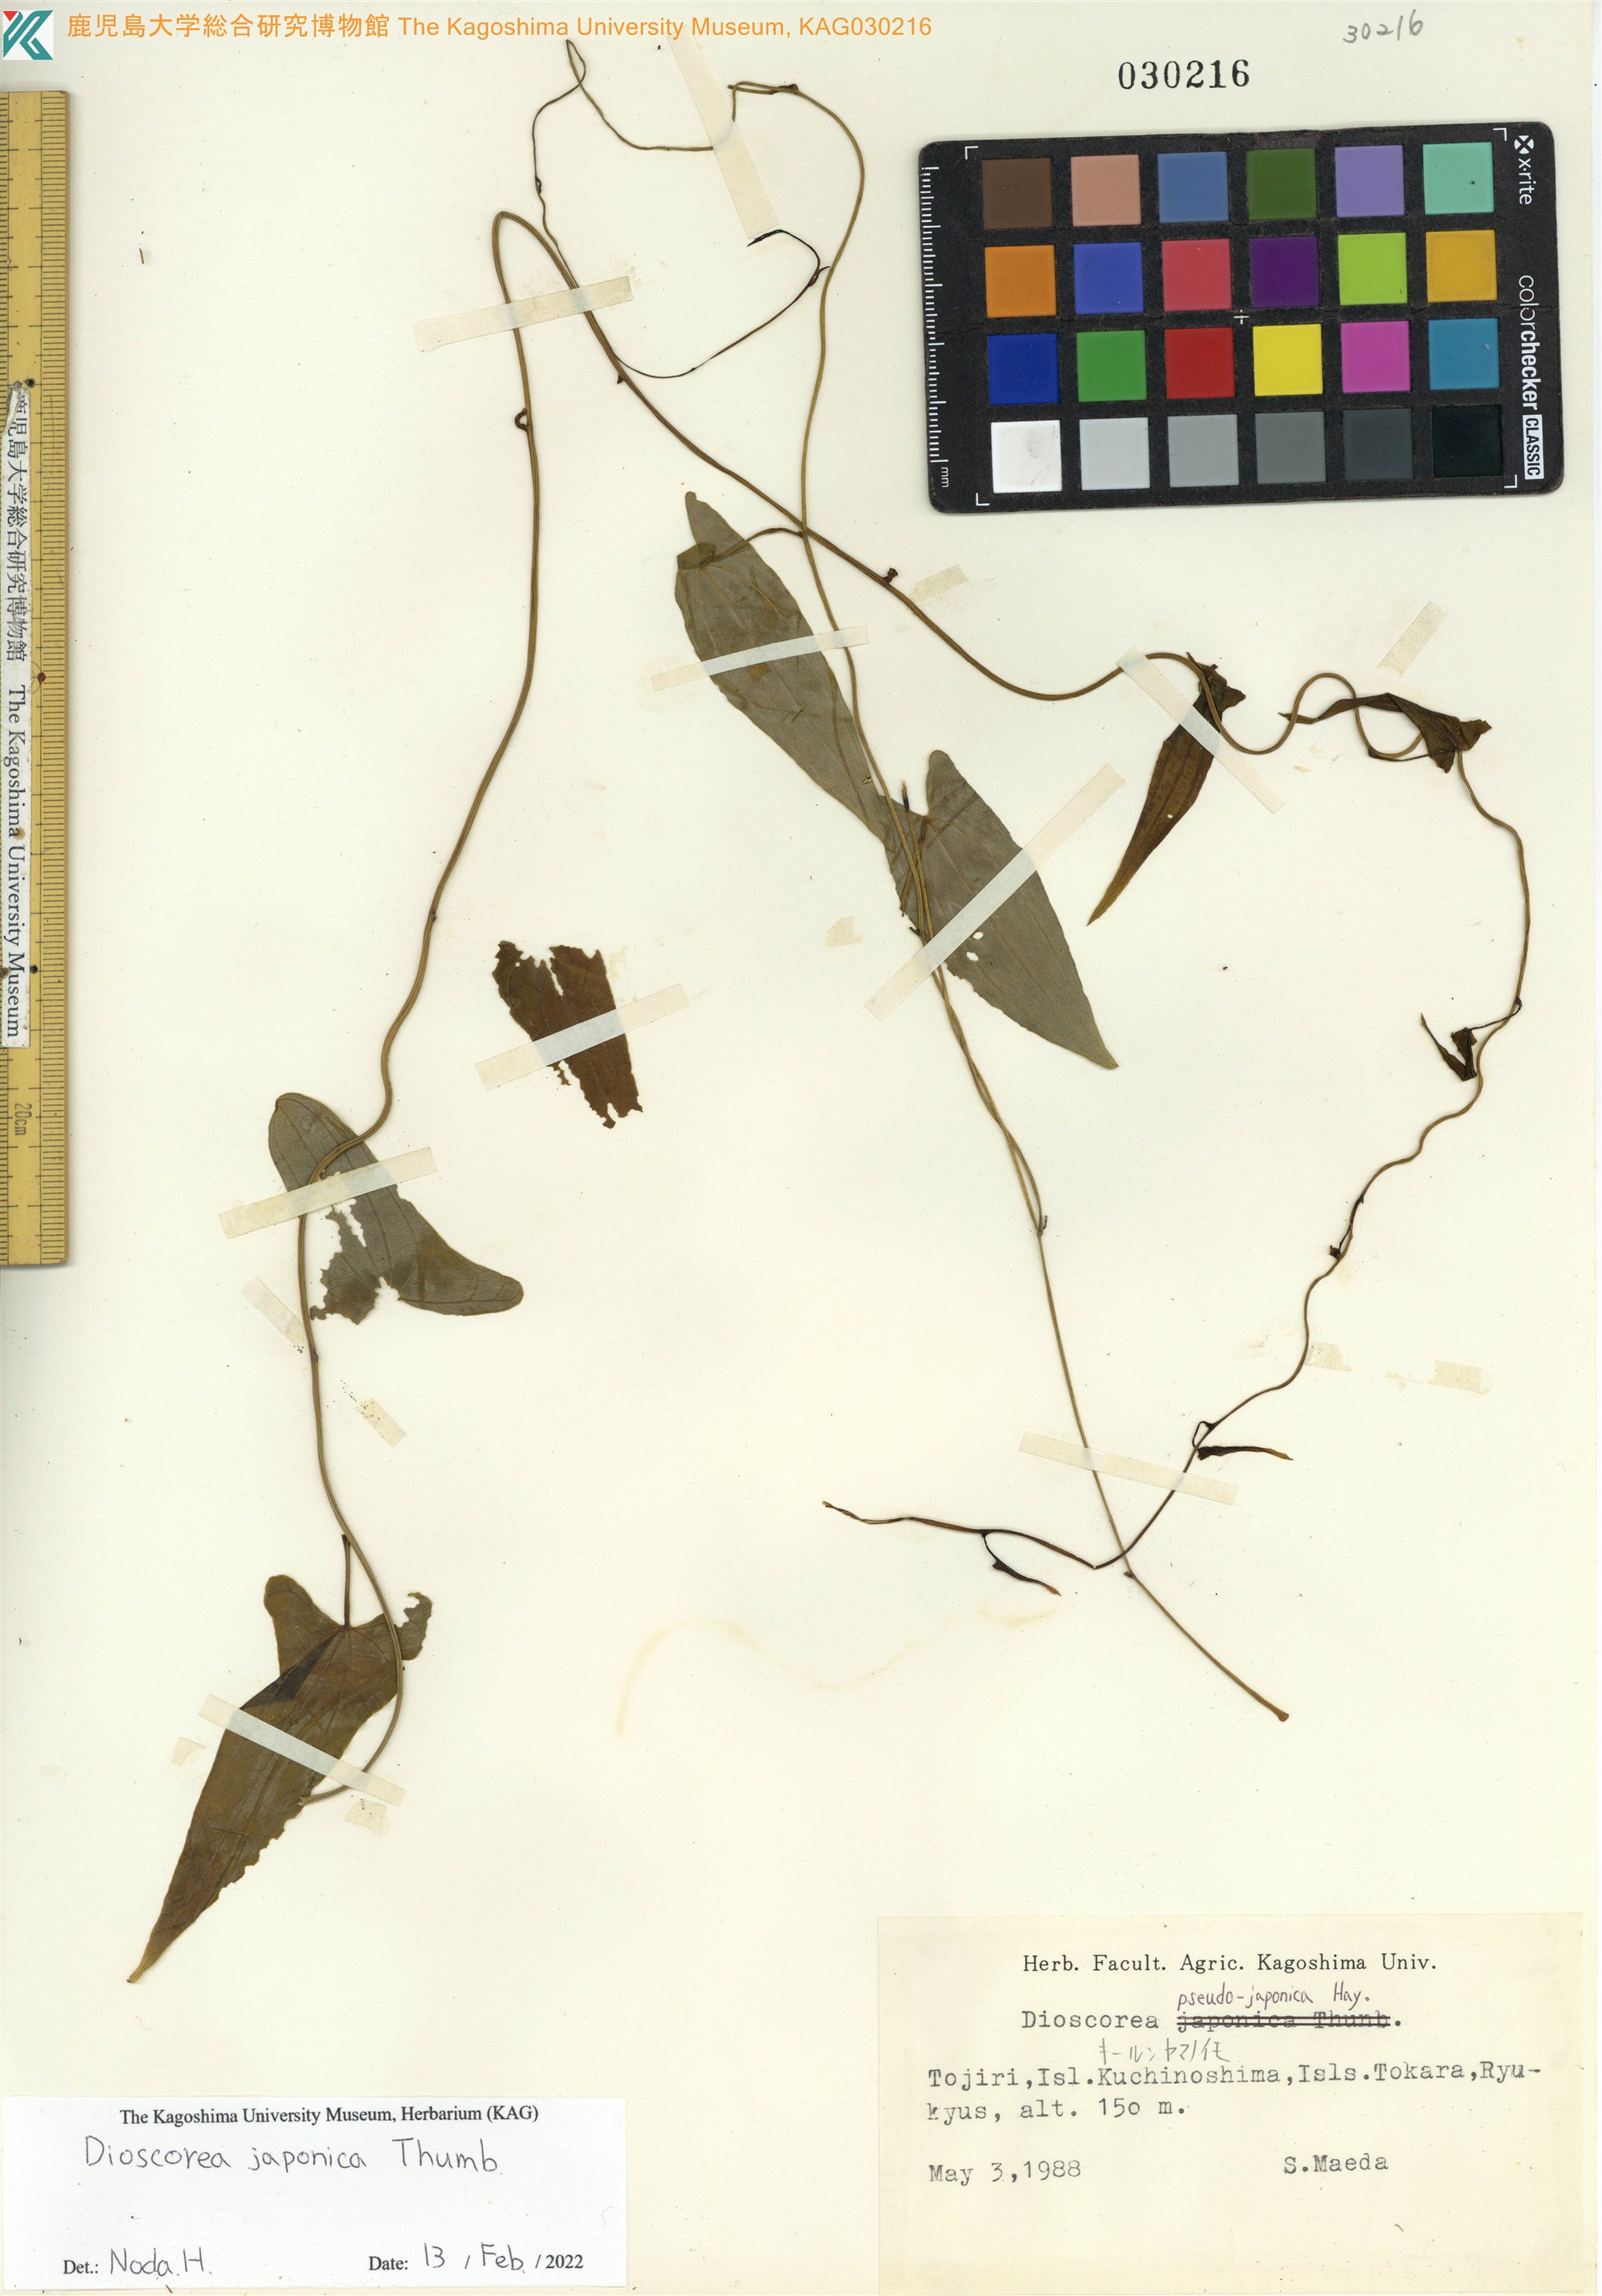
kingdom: Plantae
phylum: Tracheophyta
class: Liliopsida
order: Dioscoreales
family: Dioscoreaceae
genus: Dioscorea
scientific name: Dioscorea japonica
